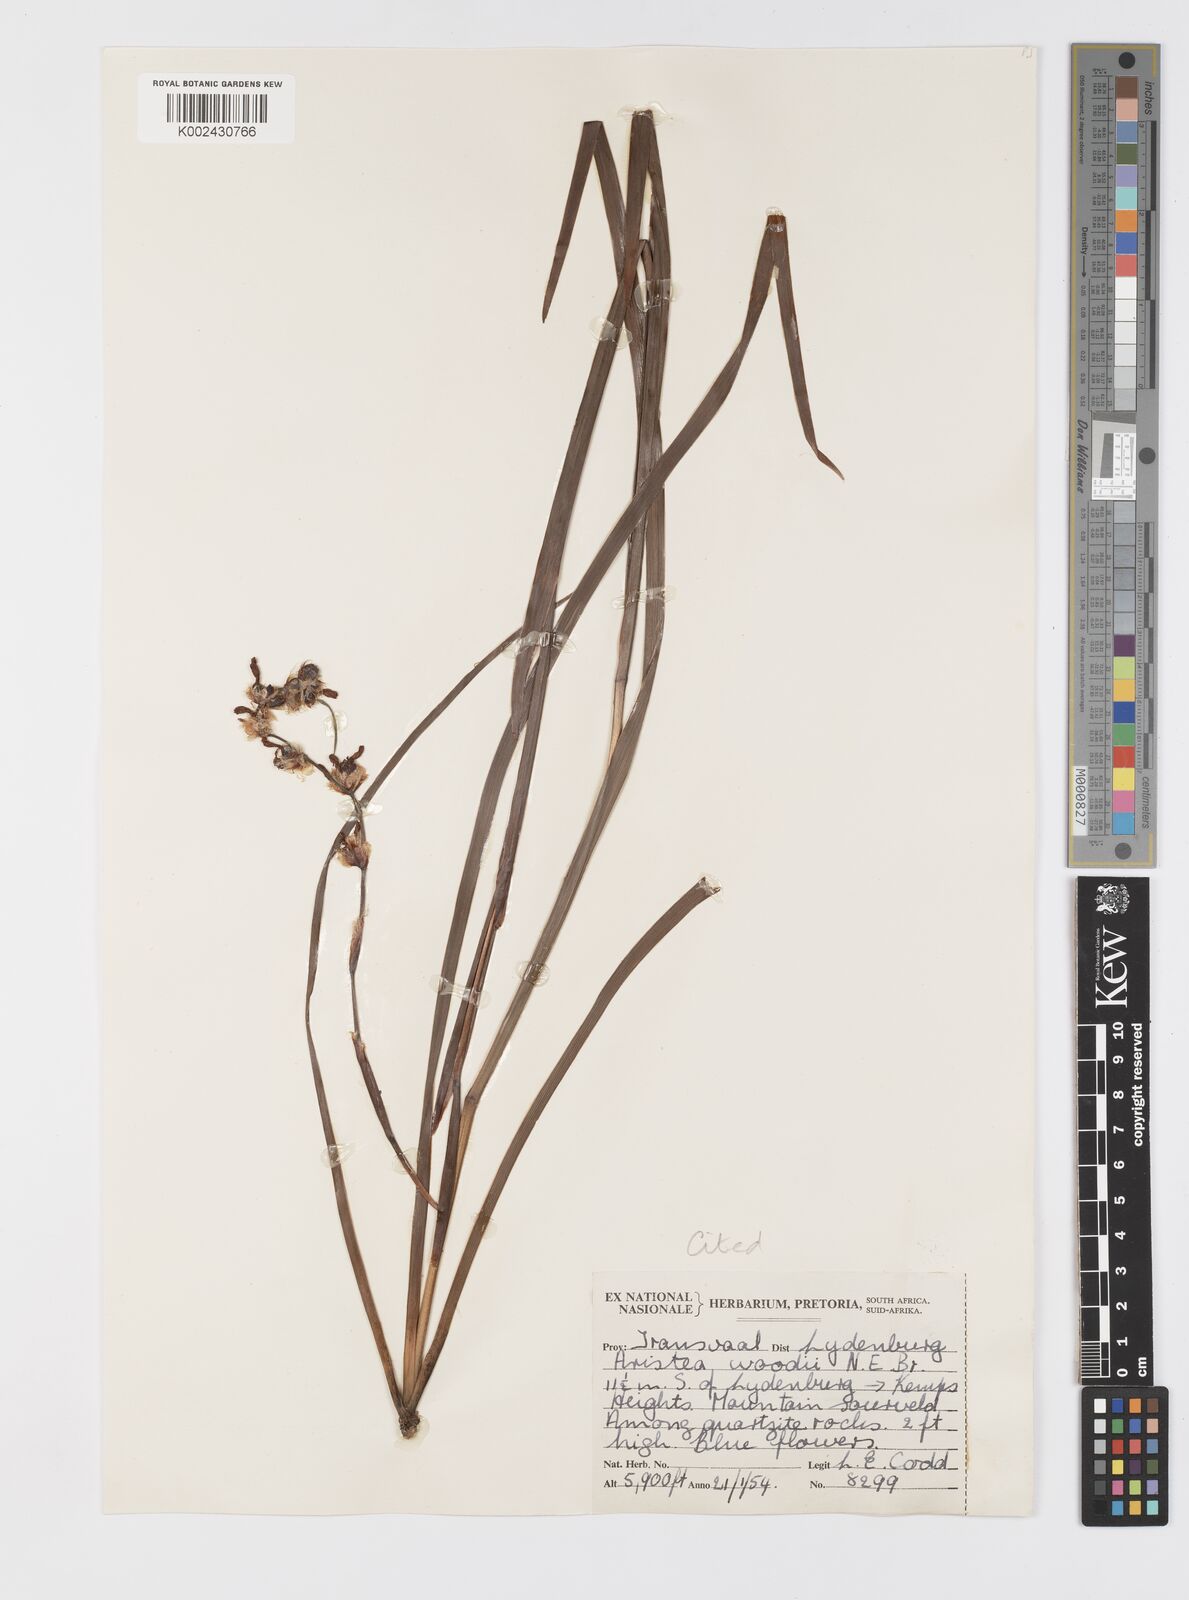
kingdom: Plantae
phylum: Tracheophyta
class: Liliopsida
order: Asparagales
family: Iridaceae
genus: Aristea
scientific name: Aristea torulosa
